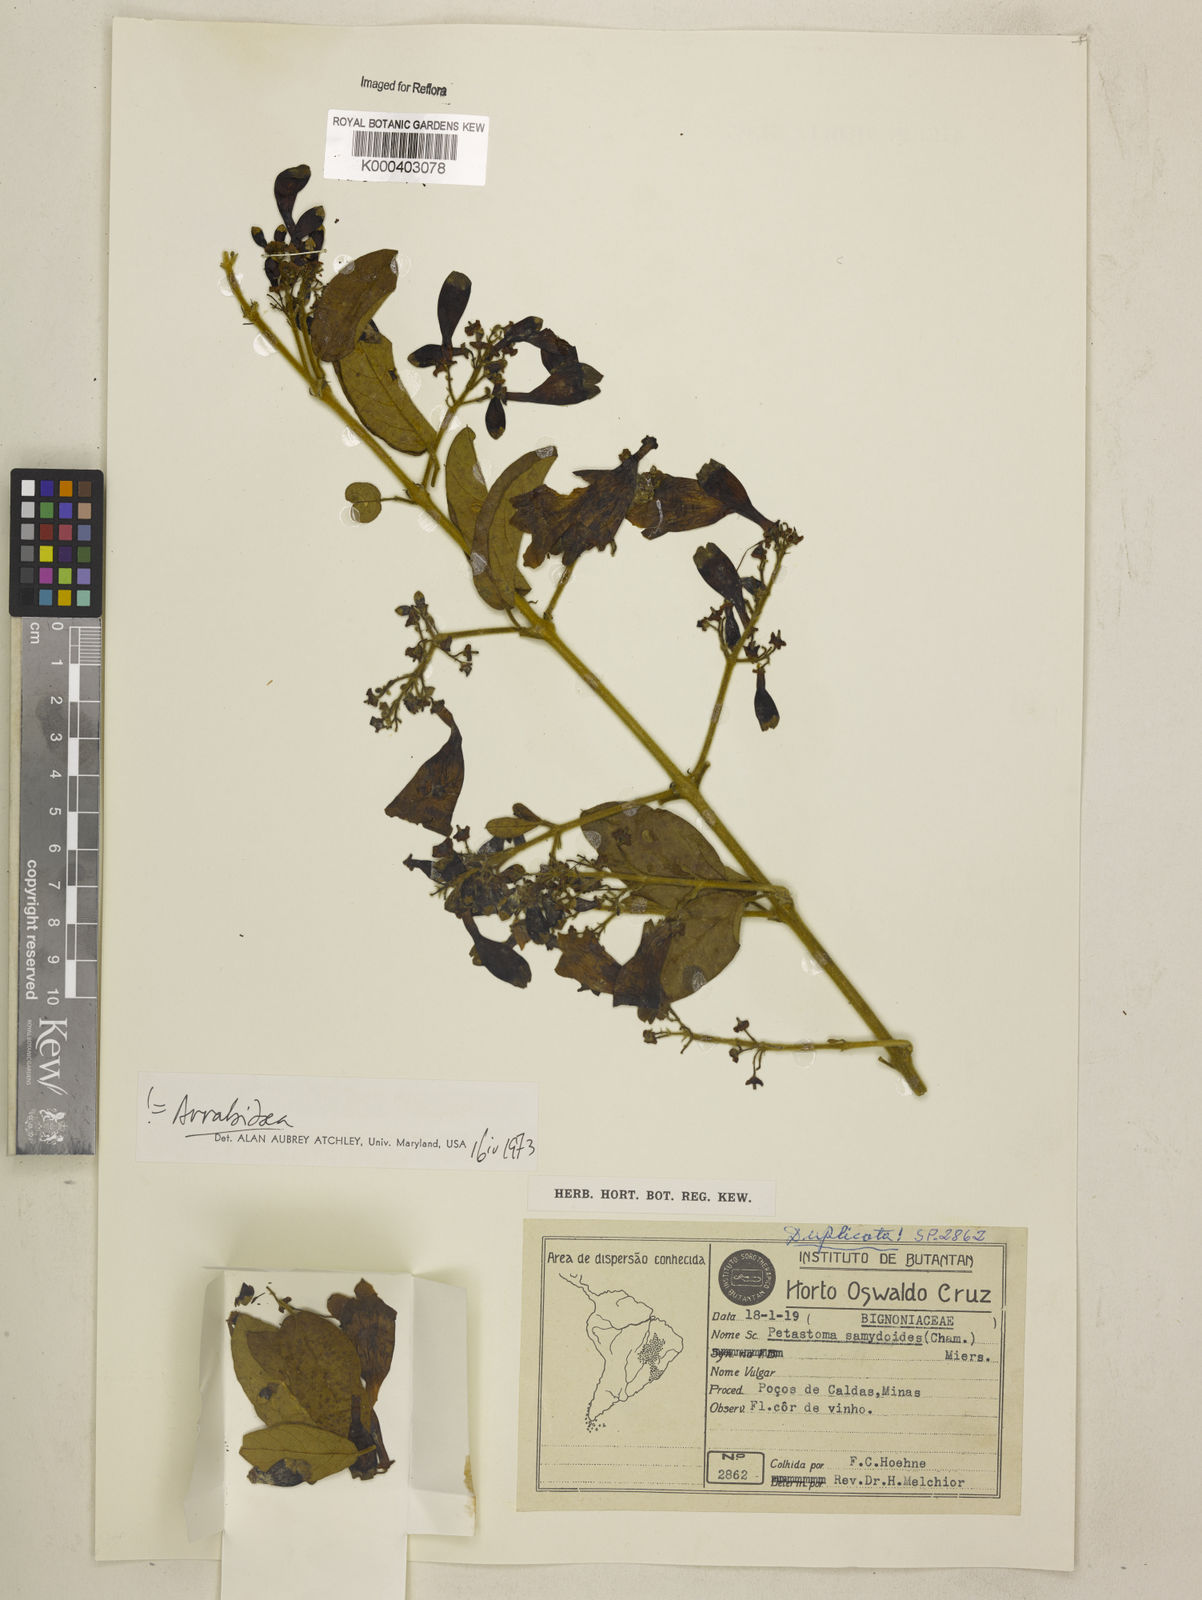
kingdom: Plantae
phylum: Tracheophyta
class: Magnoliopsida
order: Lamiales
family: Bignoniaceae
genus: Fridericia
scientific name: Fridericia samydoides
